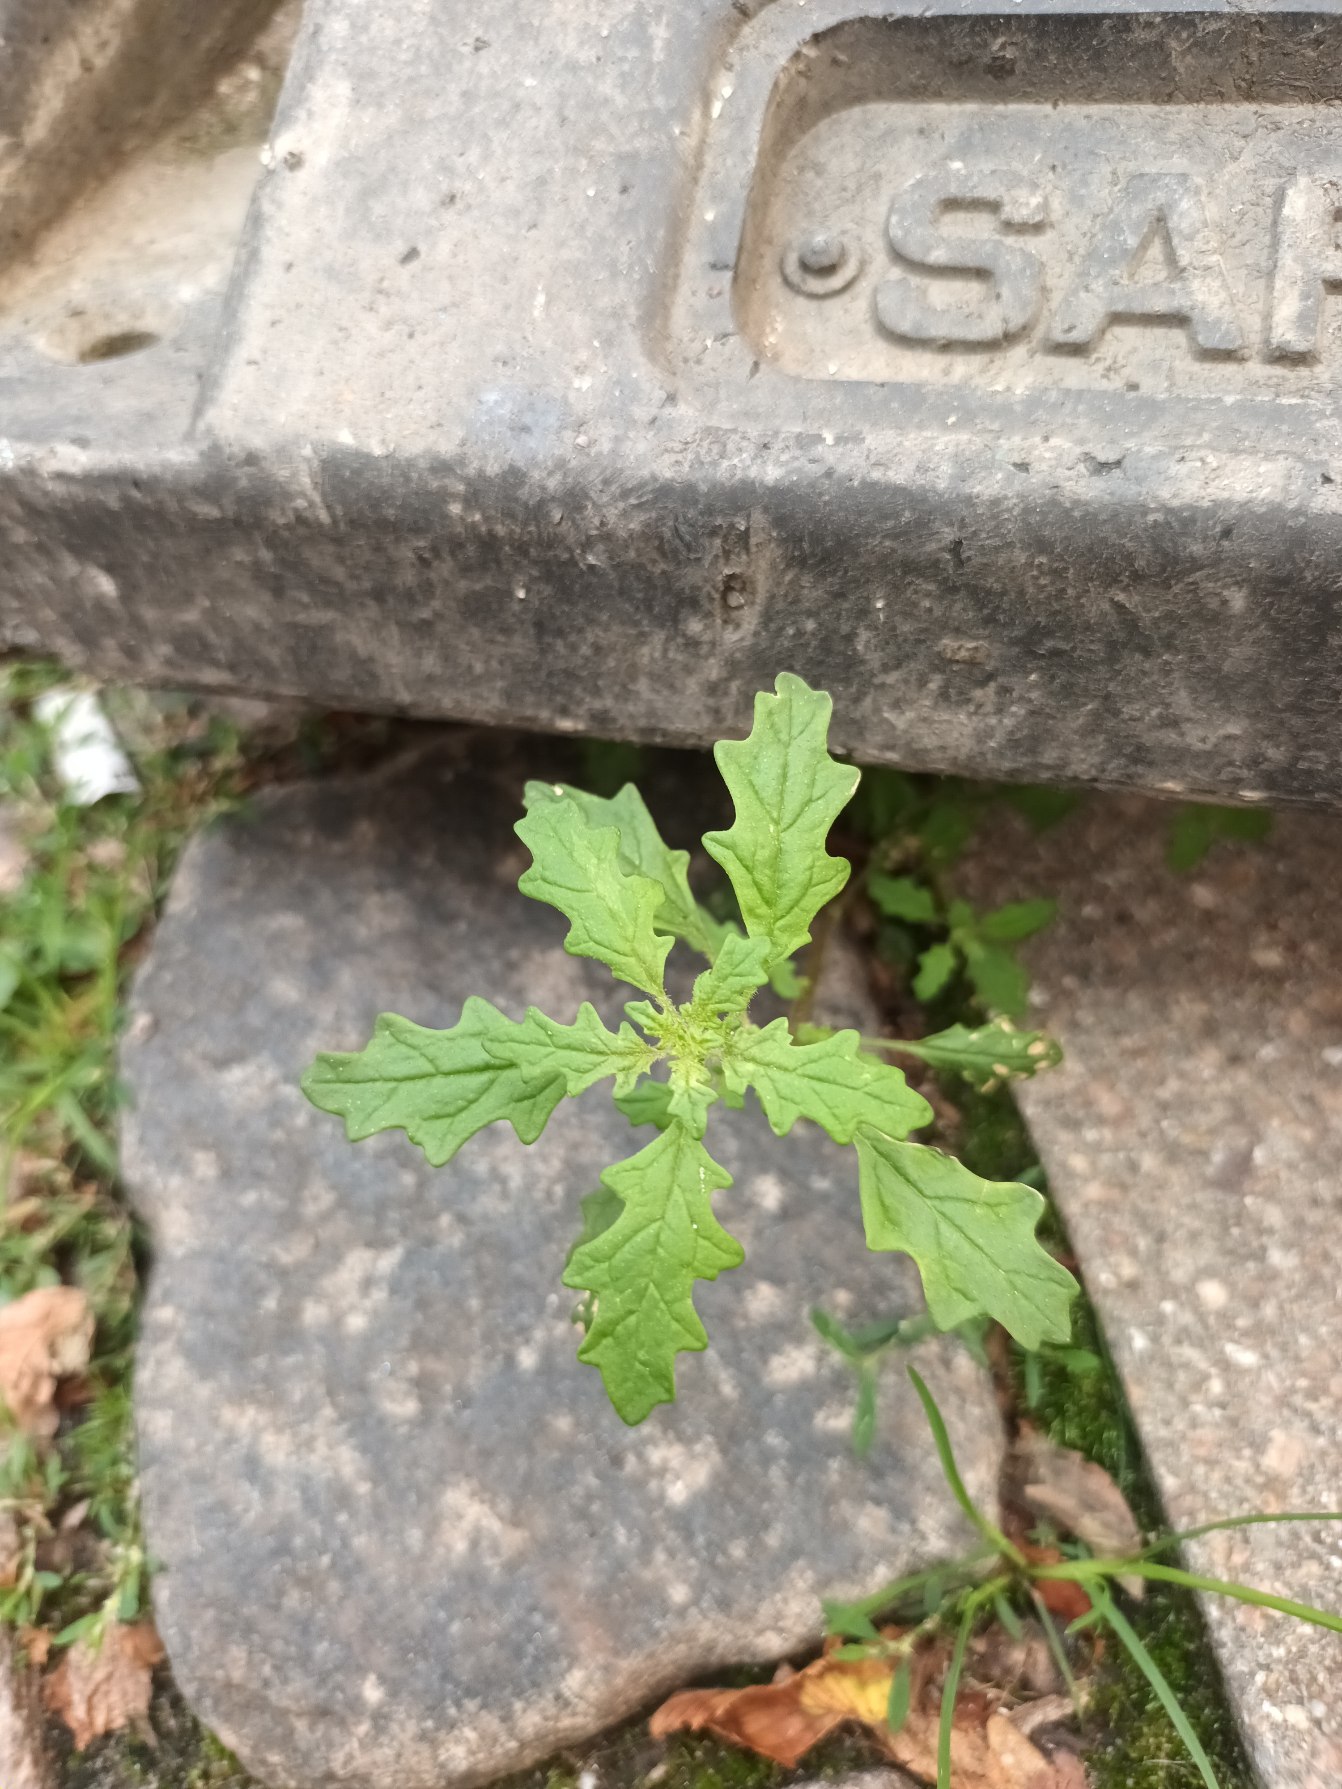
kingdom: Plantae
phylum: Tracheophyta
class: Magnoliopsida
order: Caryophyllales
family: Amaranthaceae
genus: Dysphania
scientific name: Dysphania pumilio
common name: Dværg-gåsefod
